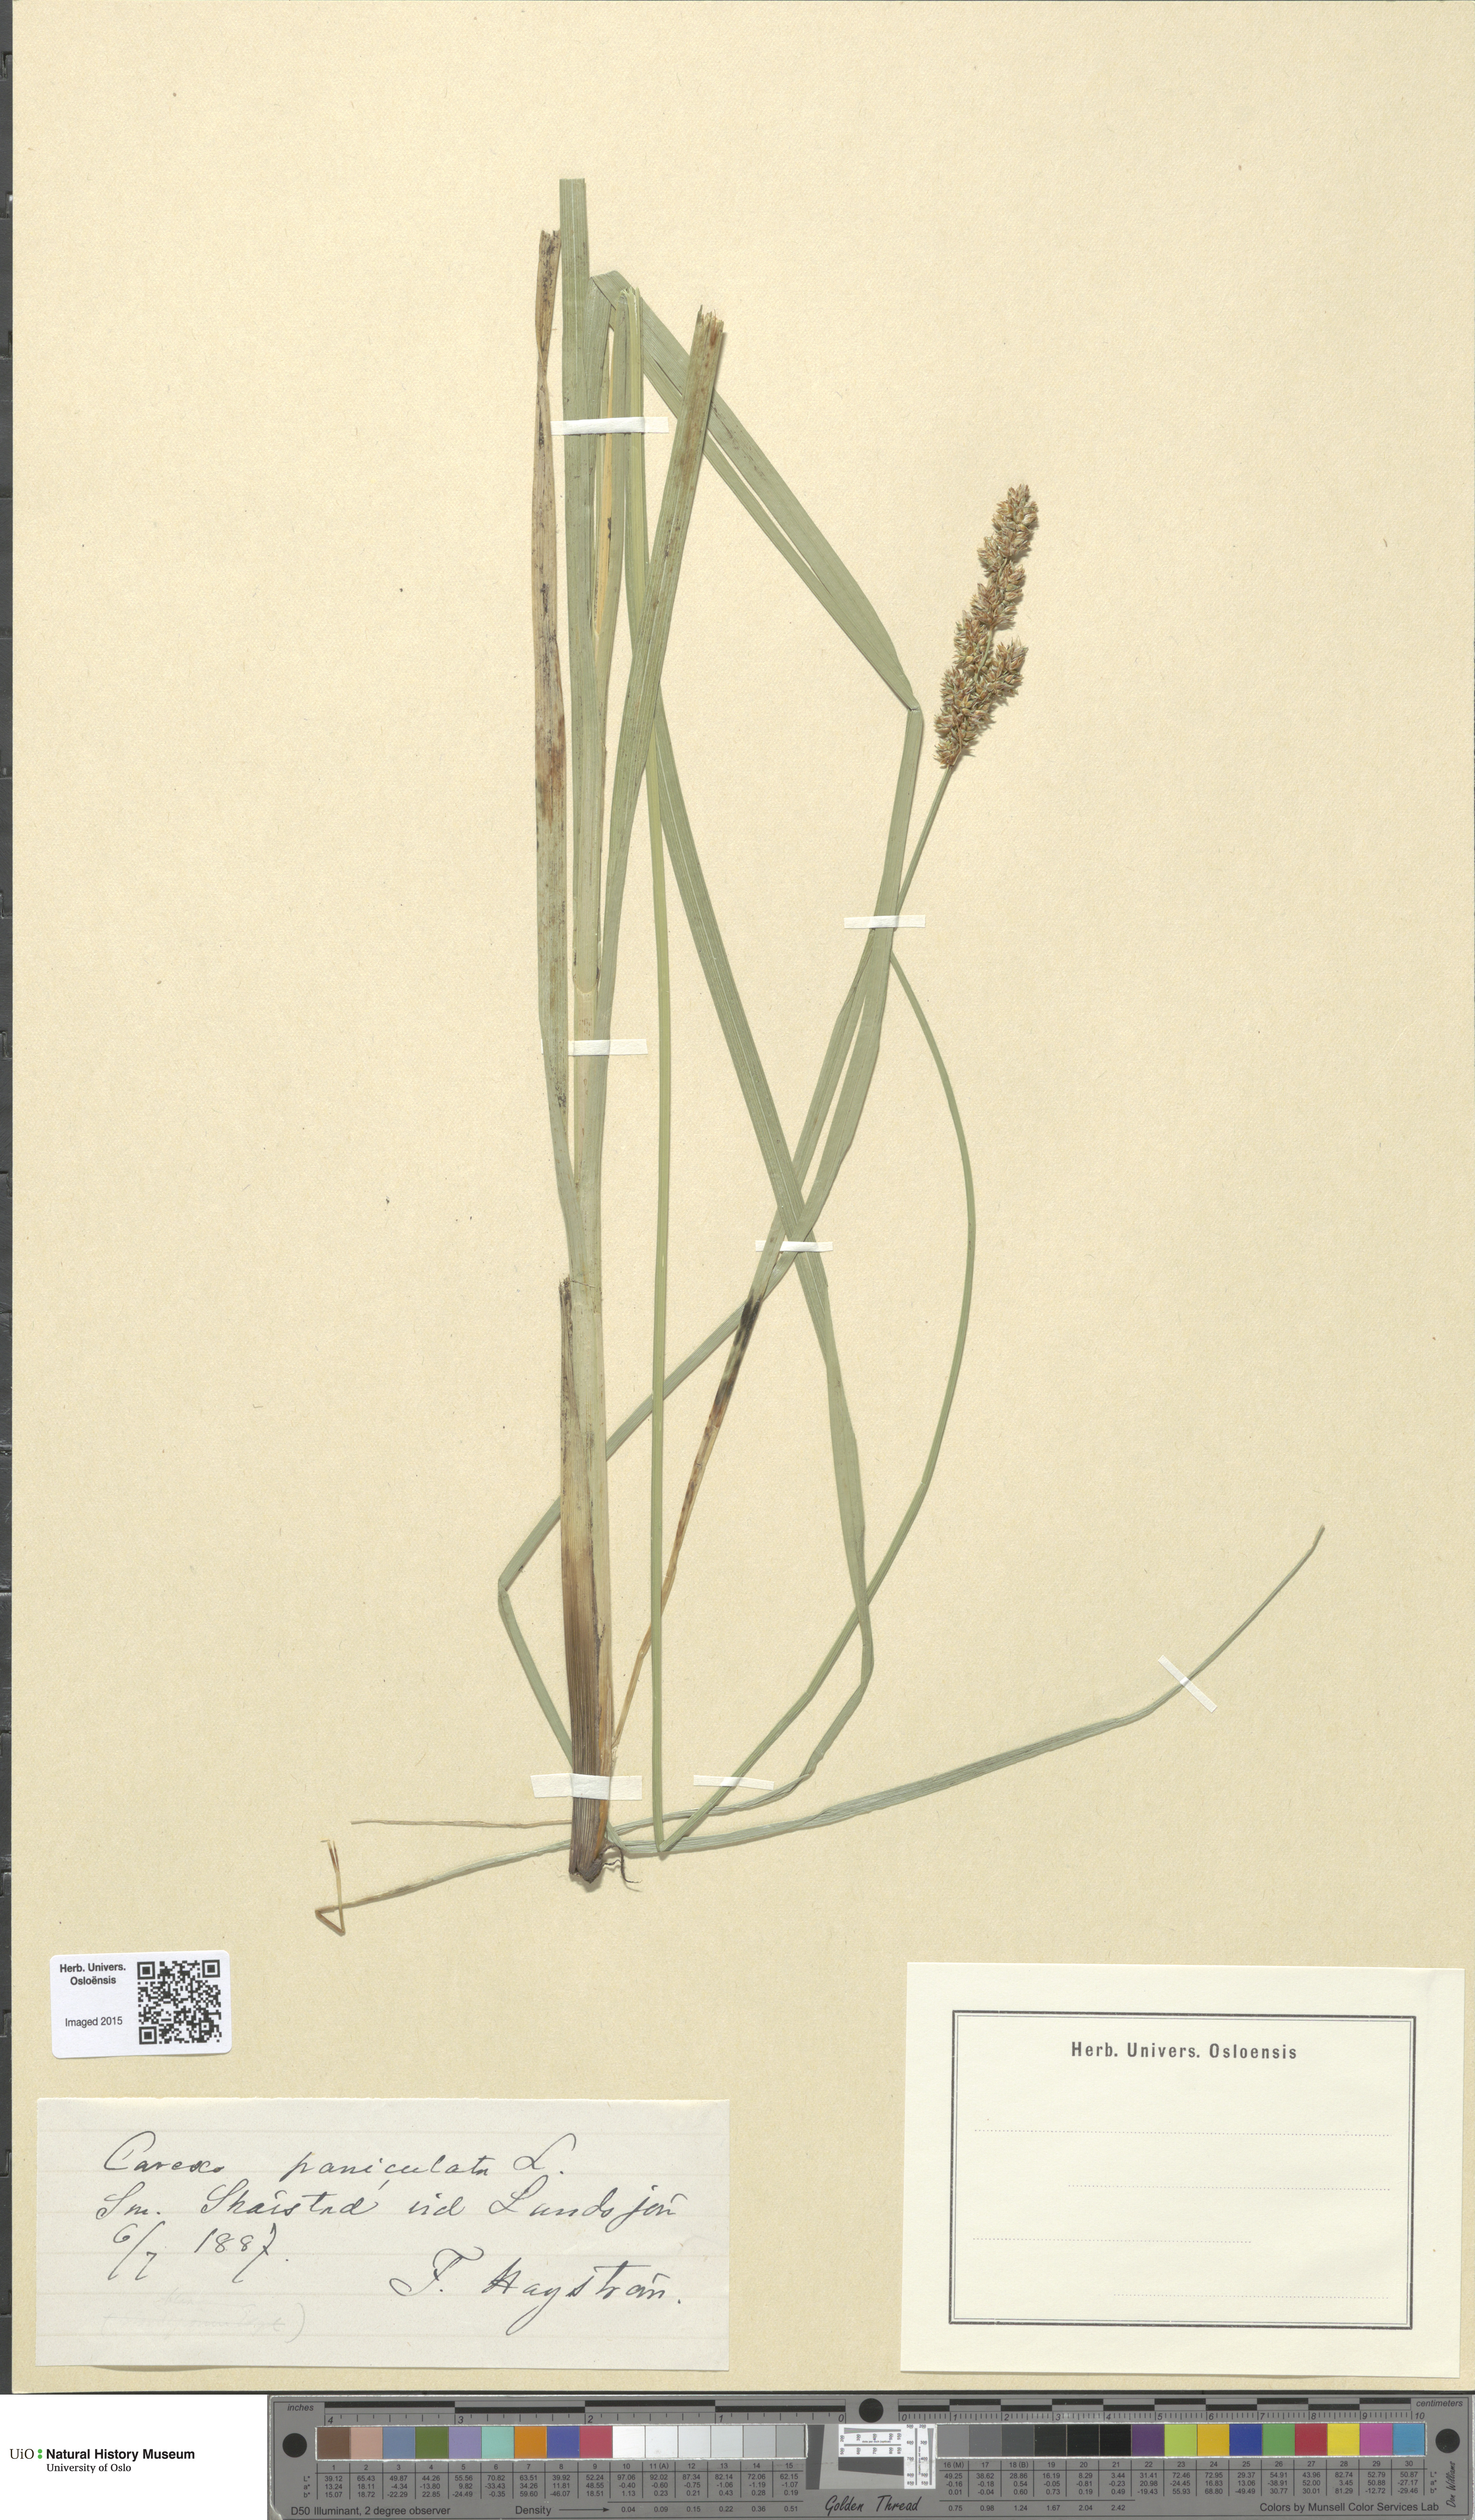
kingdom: Plantae
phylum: Tracheophyta
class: Liliopsida
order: Poales
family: Cyperaceae
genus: Carex
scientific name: Carex paniculata
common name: Greater tussock-sedge
